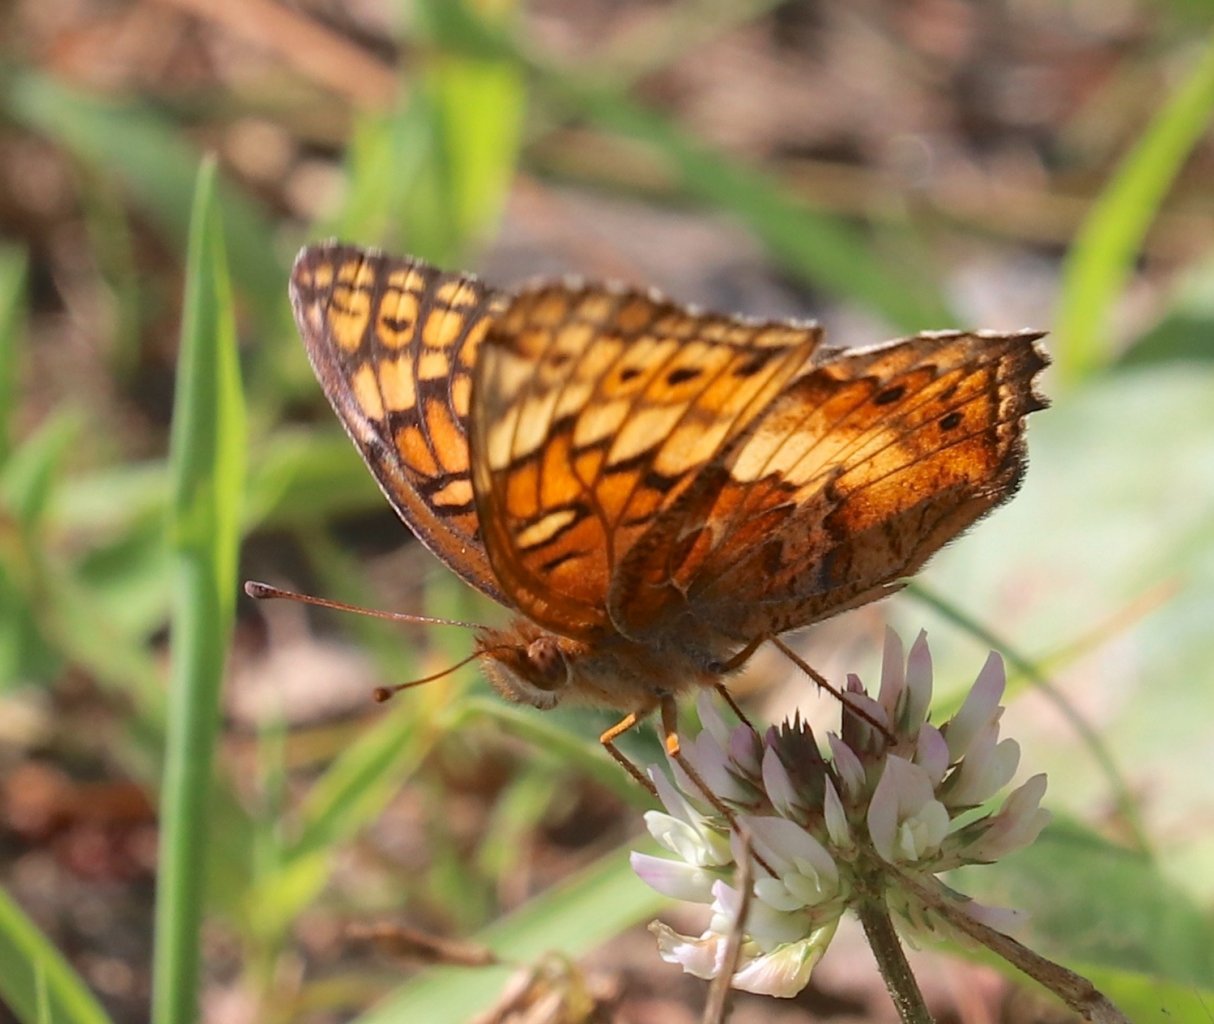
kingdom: Animalia
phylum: Arthropoda
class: Insecta
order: Lepidoptera
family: Nymphalidae
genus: Euptoieta
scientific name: Euptoieta claudia
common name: Variegated Fritillary
